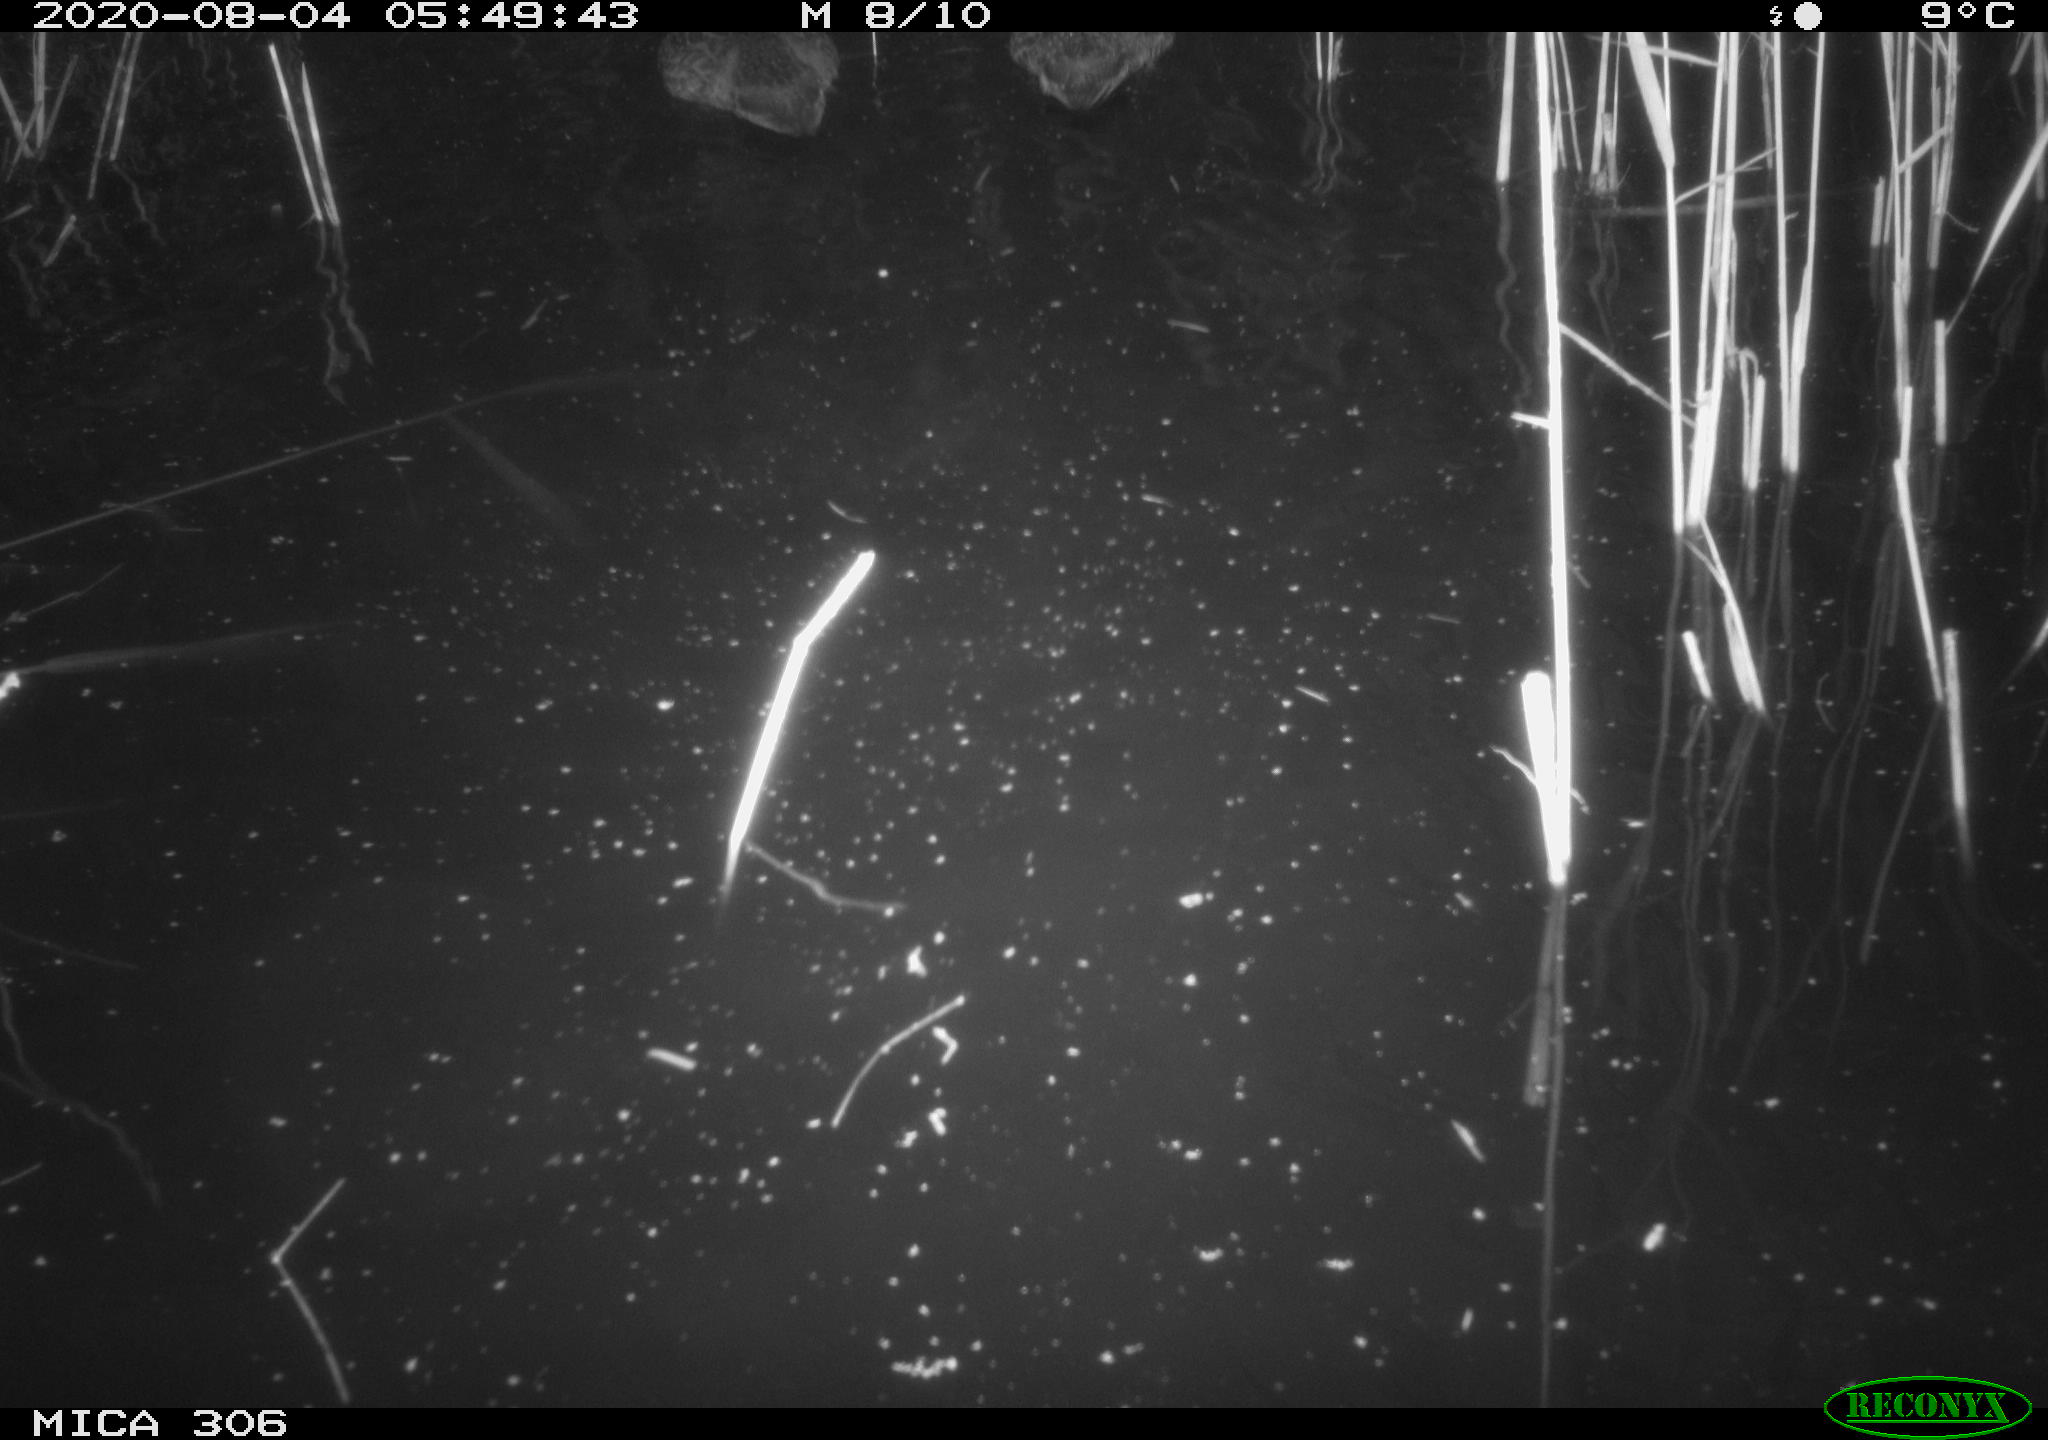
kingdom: Animalia
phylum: Chordata
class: Aves
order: Anseriformes
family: Anatidae
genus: Anas
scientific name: Anas platyrhynchos
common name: Mallard
